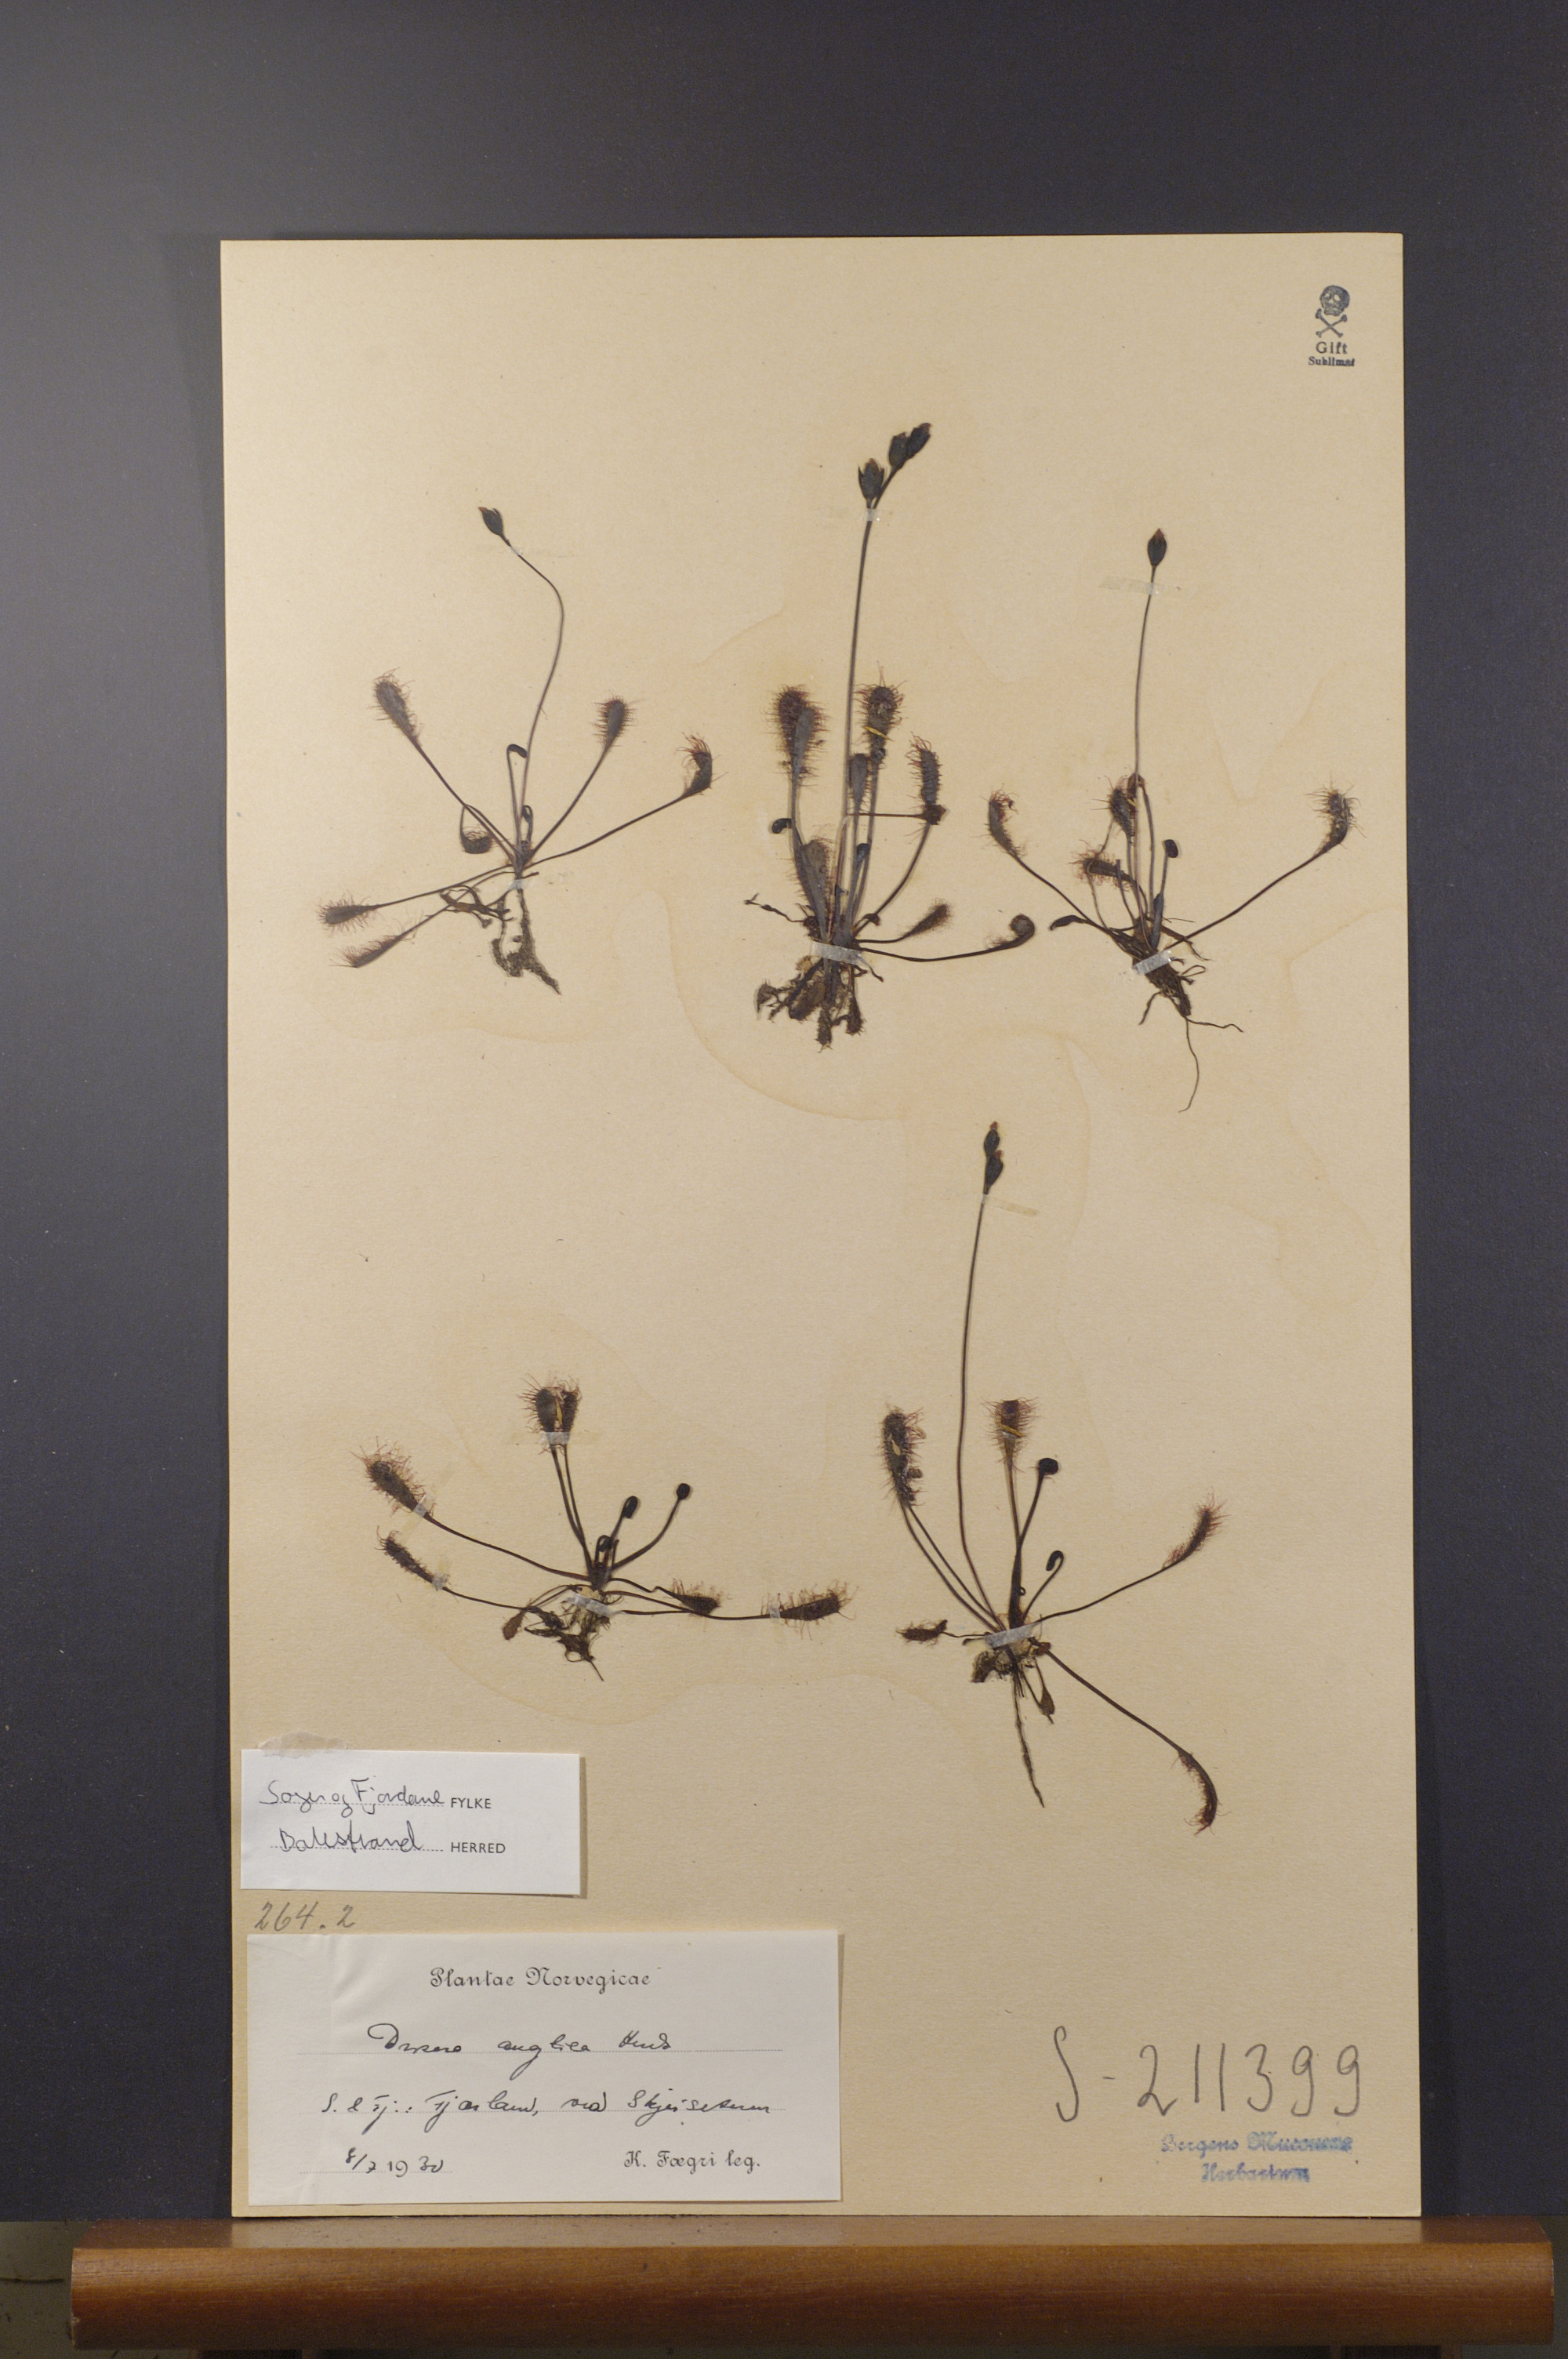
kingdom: Plantae
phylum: Tracheophyta
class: Magnoliopsida
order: Caryophyllales
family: Droseraceae
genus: Drosera
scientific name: Drosera anglica
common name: Great sundew
